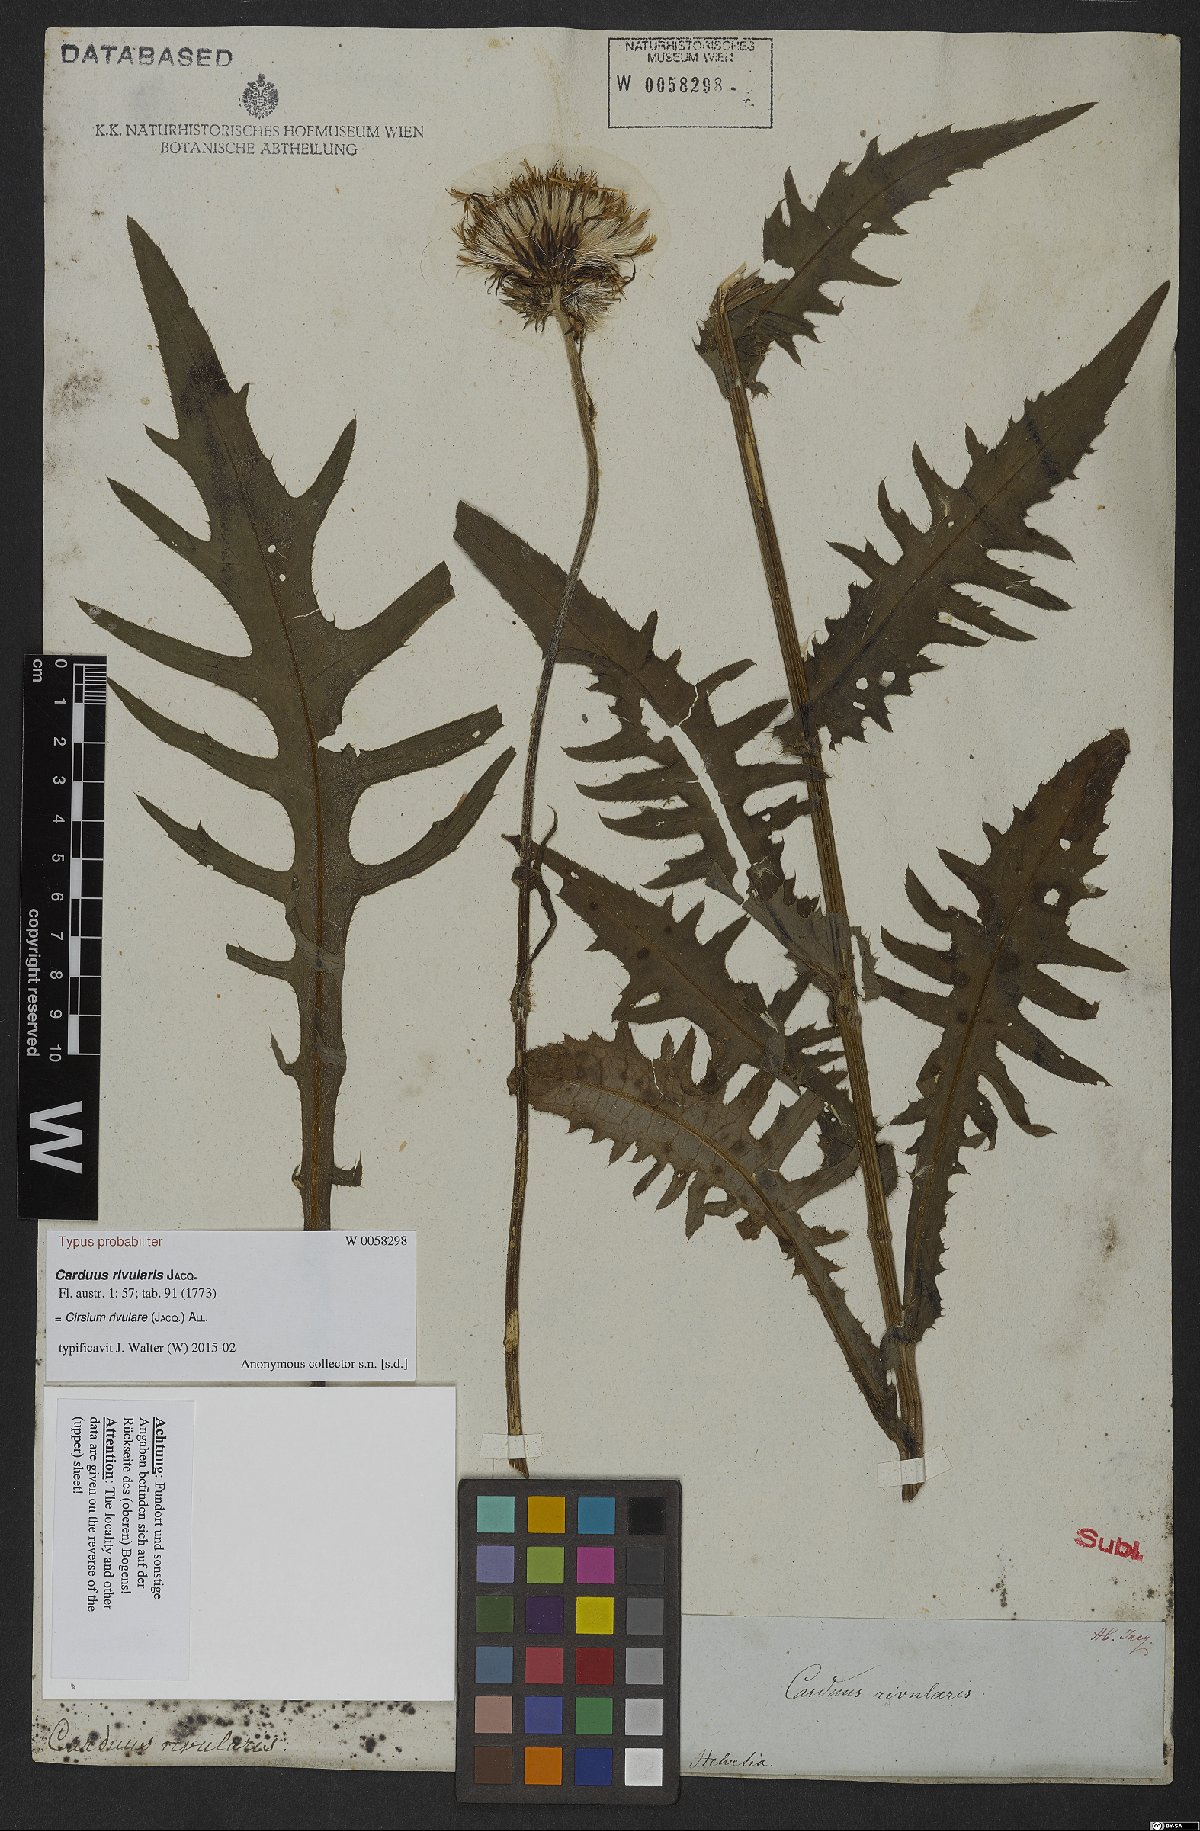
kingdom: Plantae
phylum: Tracheophyta
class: Magnoliopsida
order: Asterales
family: Asteraceae
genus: Cirsium
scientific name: Cirsium rivulare
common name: Brook thistle
